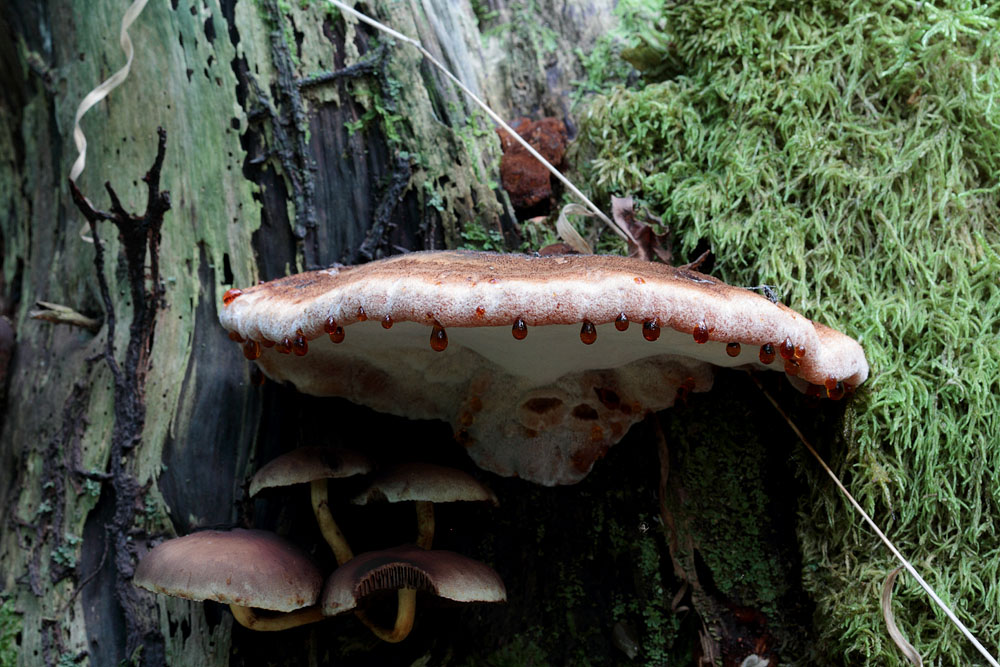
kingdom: Fungi
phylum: Basidiomycota
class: Agaricomycetes
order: Polyporales
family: Ischnodermataceae
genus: Ischnoderma
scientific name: Ischnoderma benzoinum
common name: gran-tjæreporesvamp
